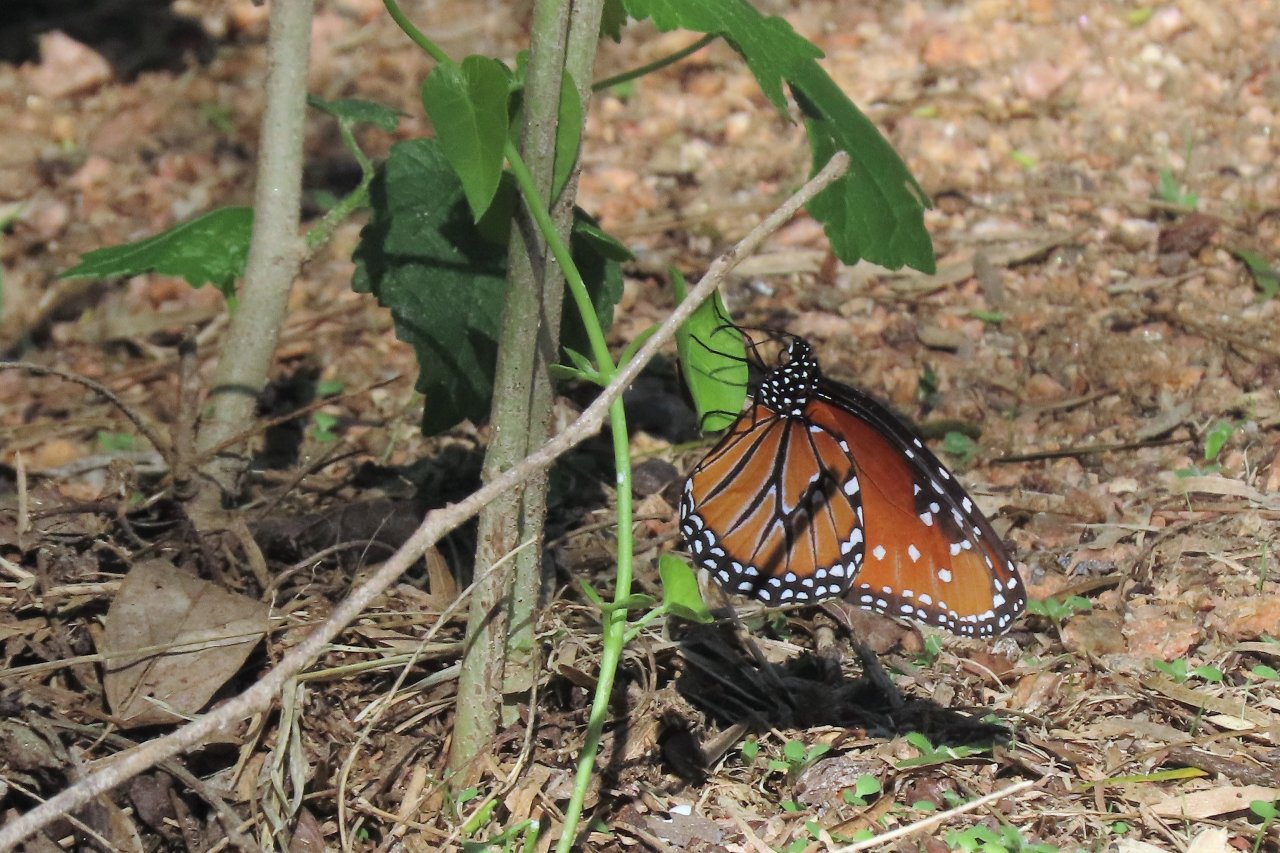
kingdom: Animalia
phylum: Arthropoda
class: Insecta
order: Lepidoptera
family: Nymphalidae
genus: Danaus
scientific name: Danaus gilippus
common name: Queen
